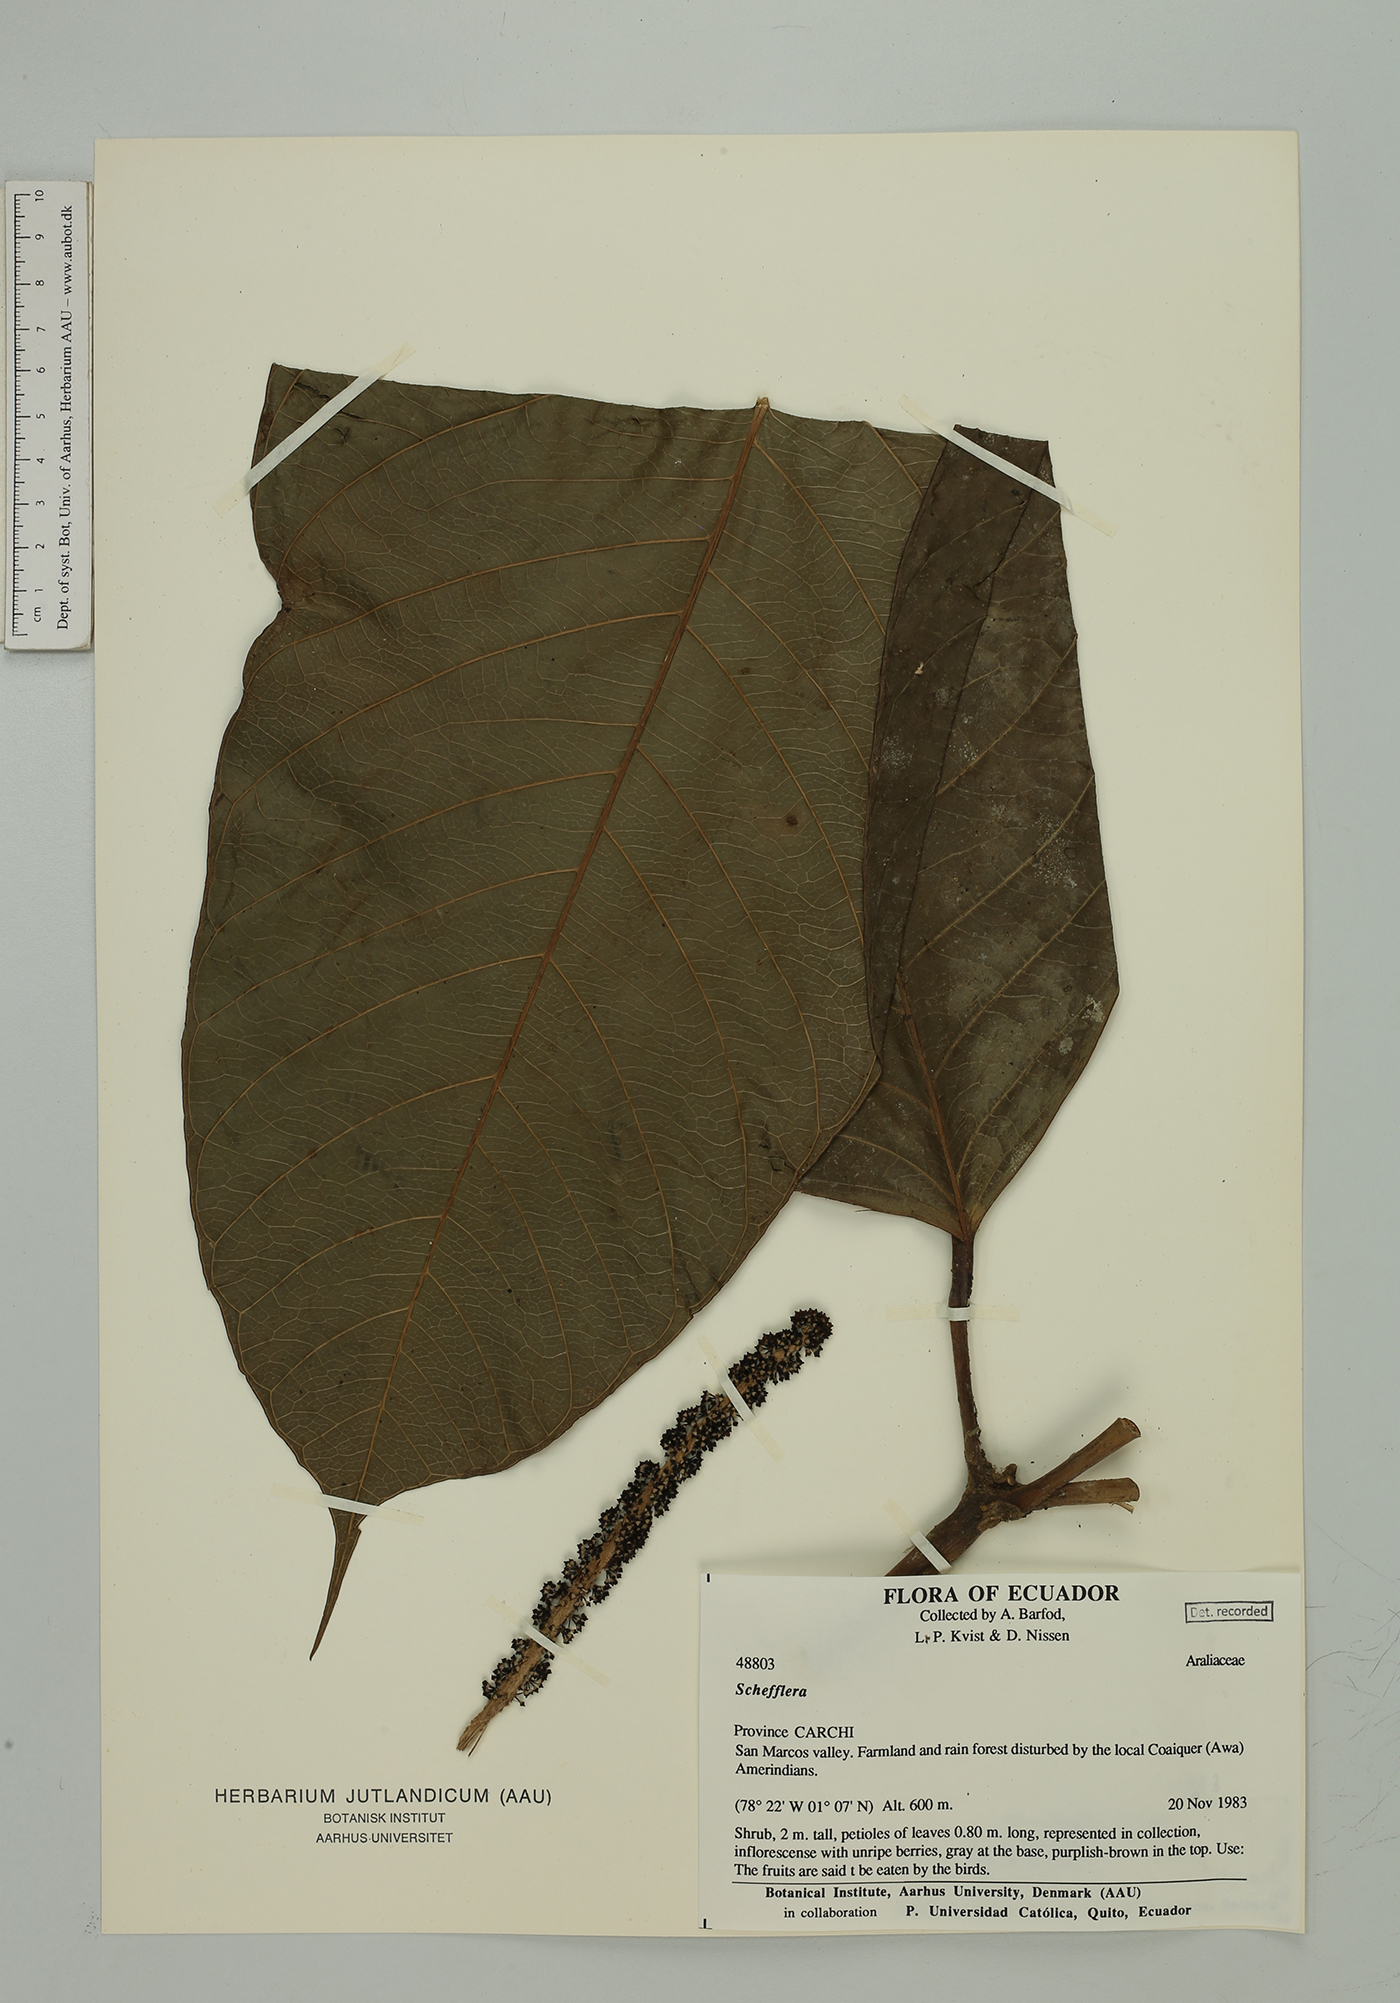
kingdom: Plantae
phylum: Tracheophyta
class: Magnoliopsida
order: Apiales
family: Araliaceae
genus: Sciodaphyllum
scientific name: Sciodaphyllum minutiflorum
